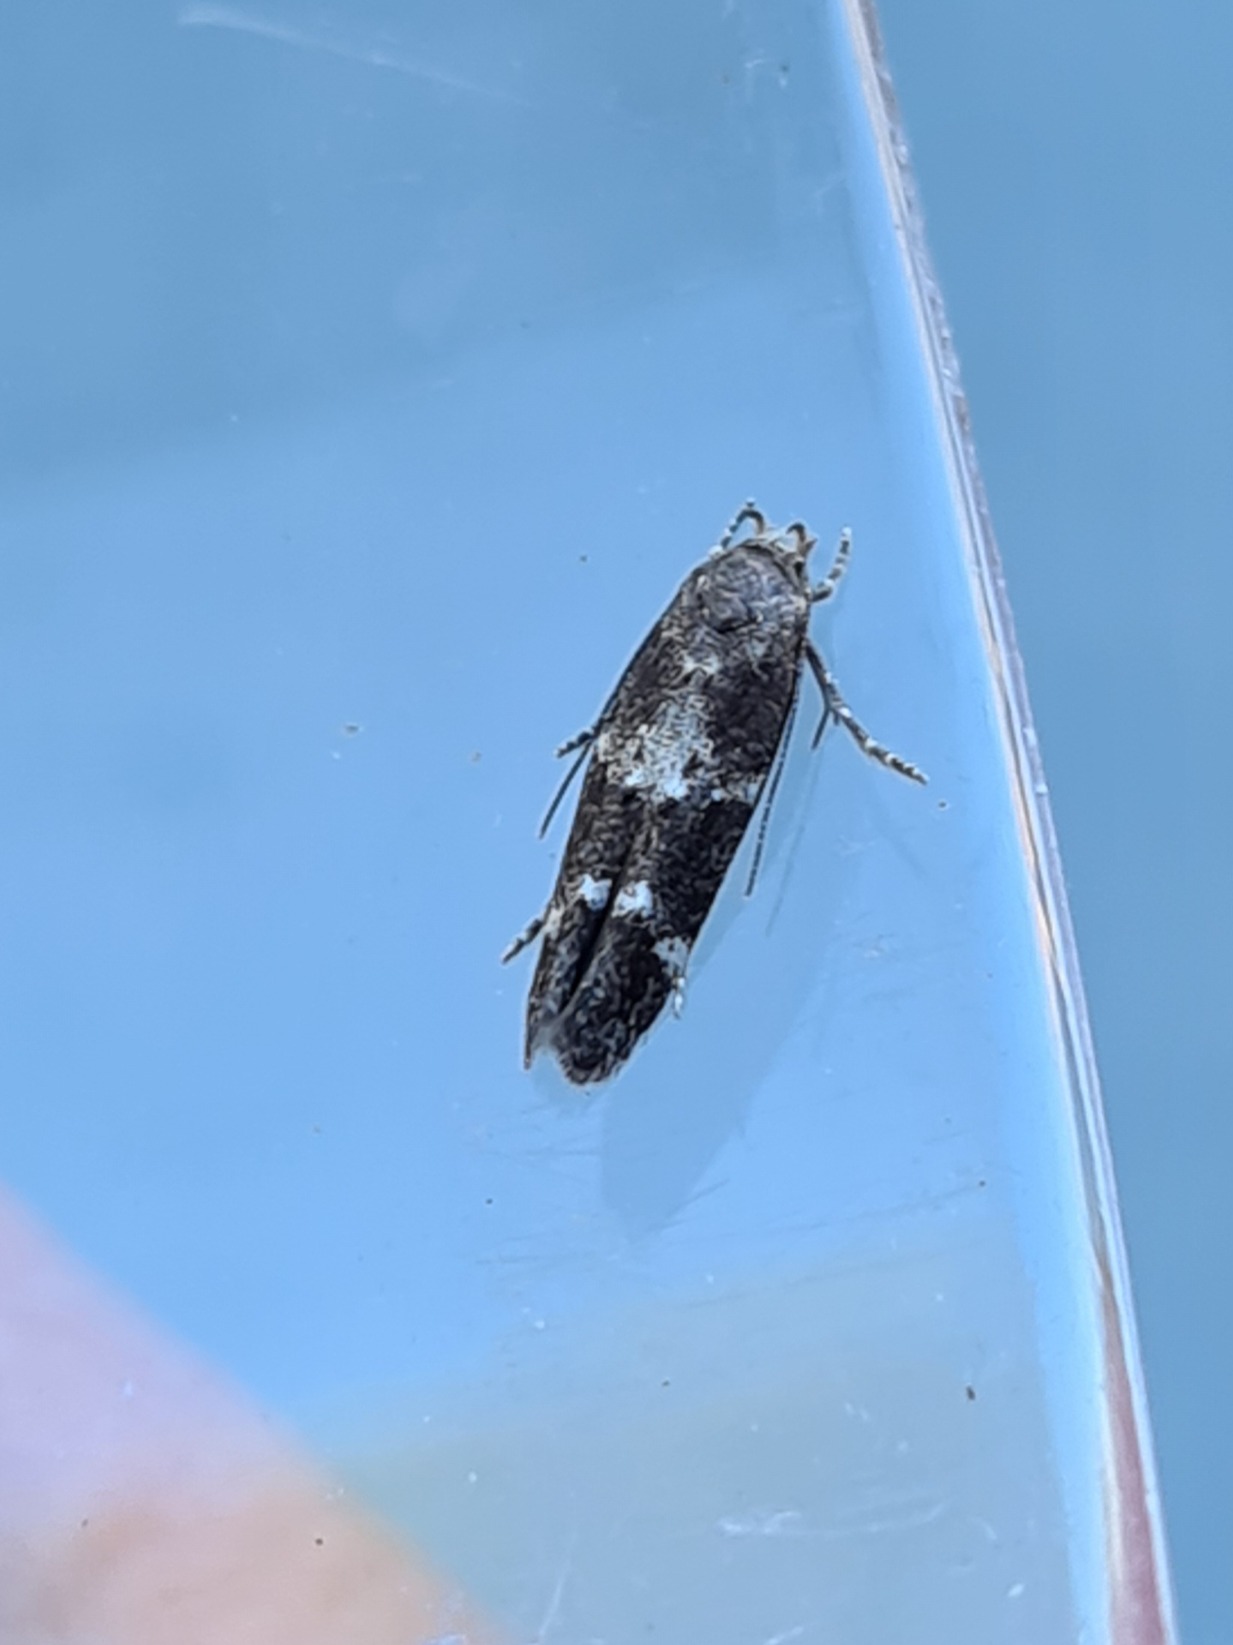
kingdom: Animalia
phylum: Arthropoda
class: Insecta
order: Lepidoptera
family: Momphidae
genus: Mompha
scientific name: Mompha subbistrigella
